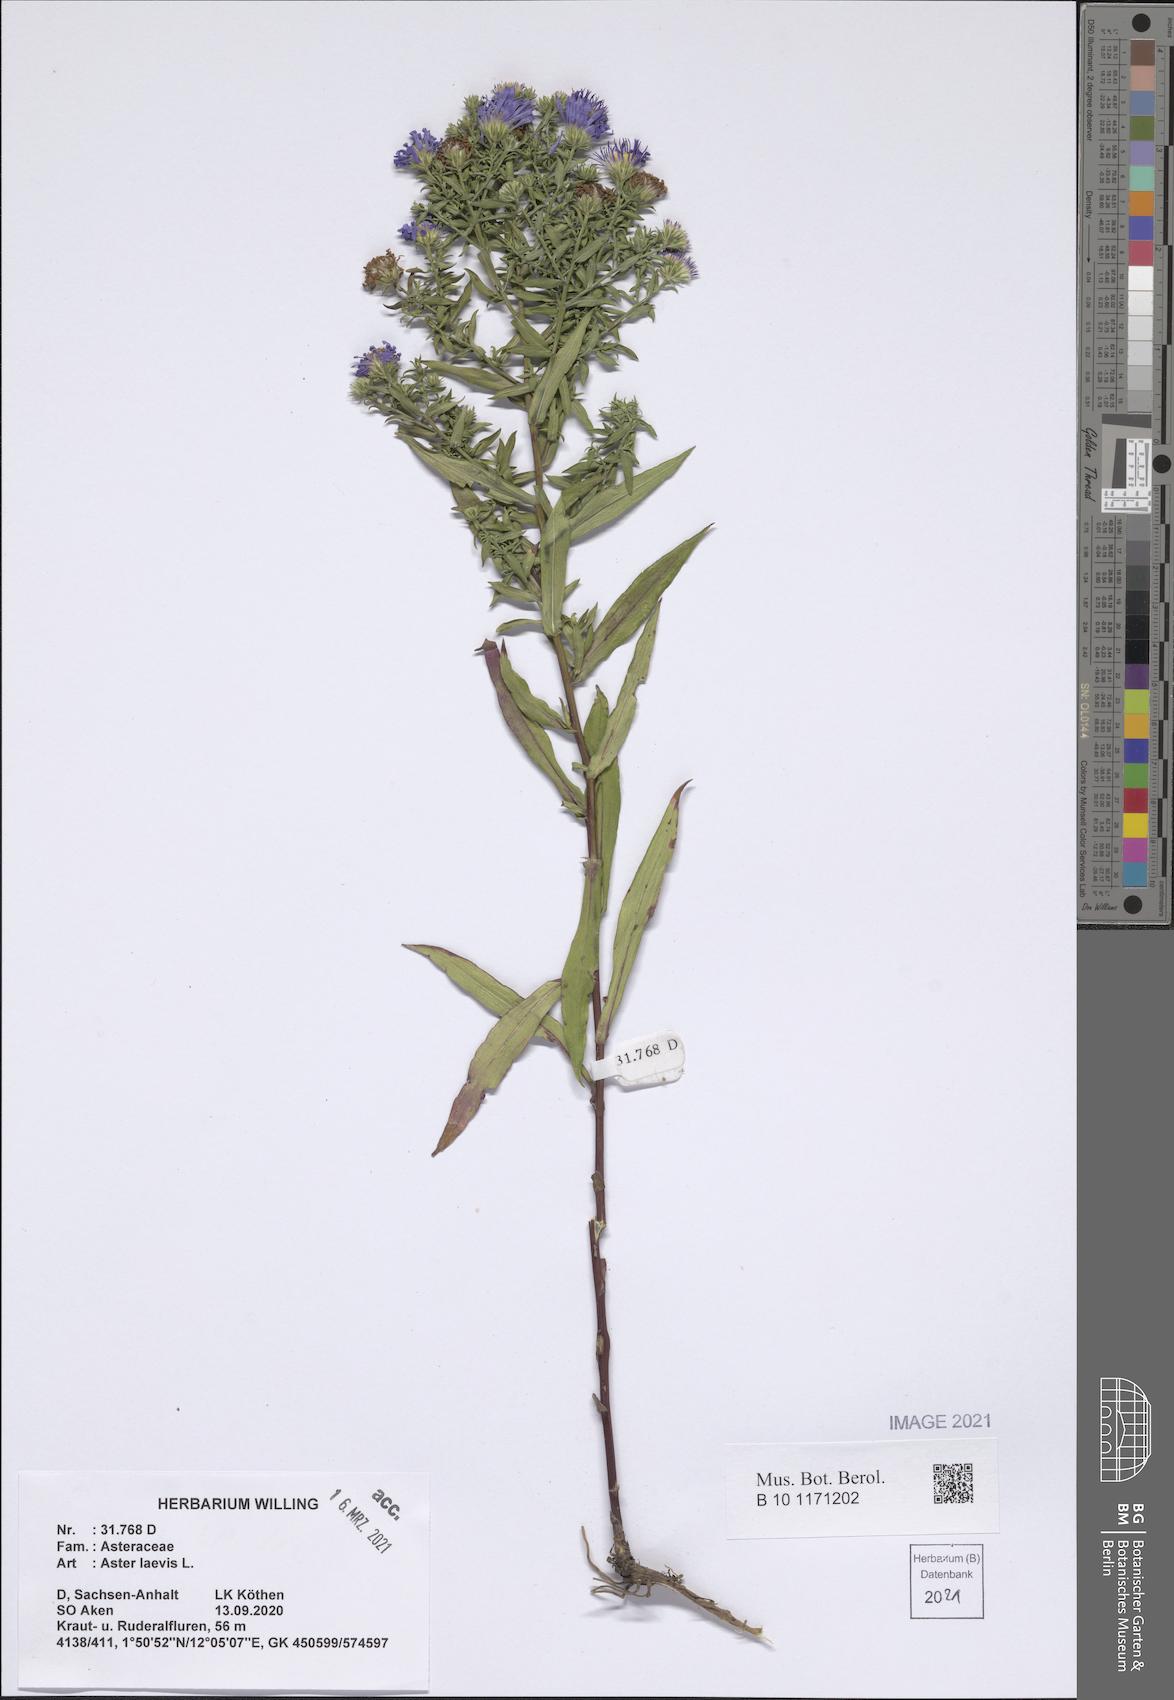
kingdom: Plantae
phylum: Tracheophyta
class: Magnoliopsida
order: Asterales
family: Asteraceae
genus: Symphyotrichum
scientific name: Symphyotrichum laeve
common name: Glaucous aster
